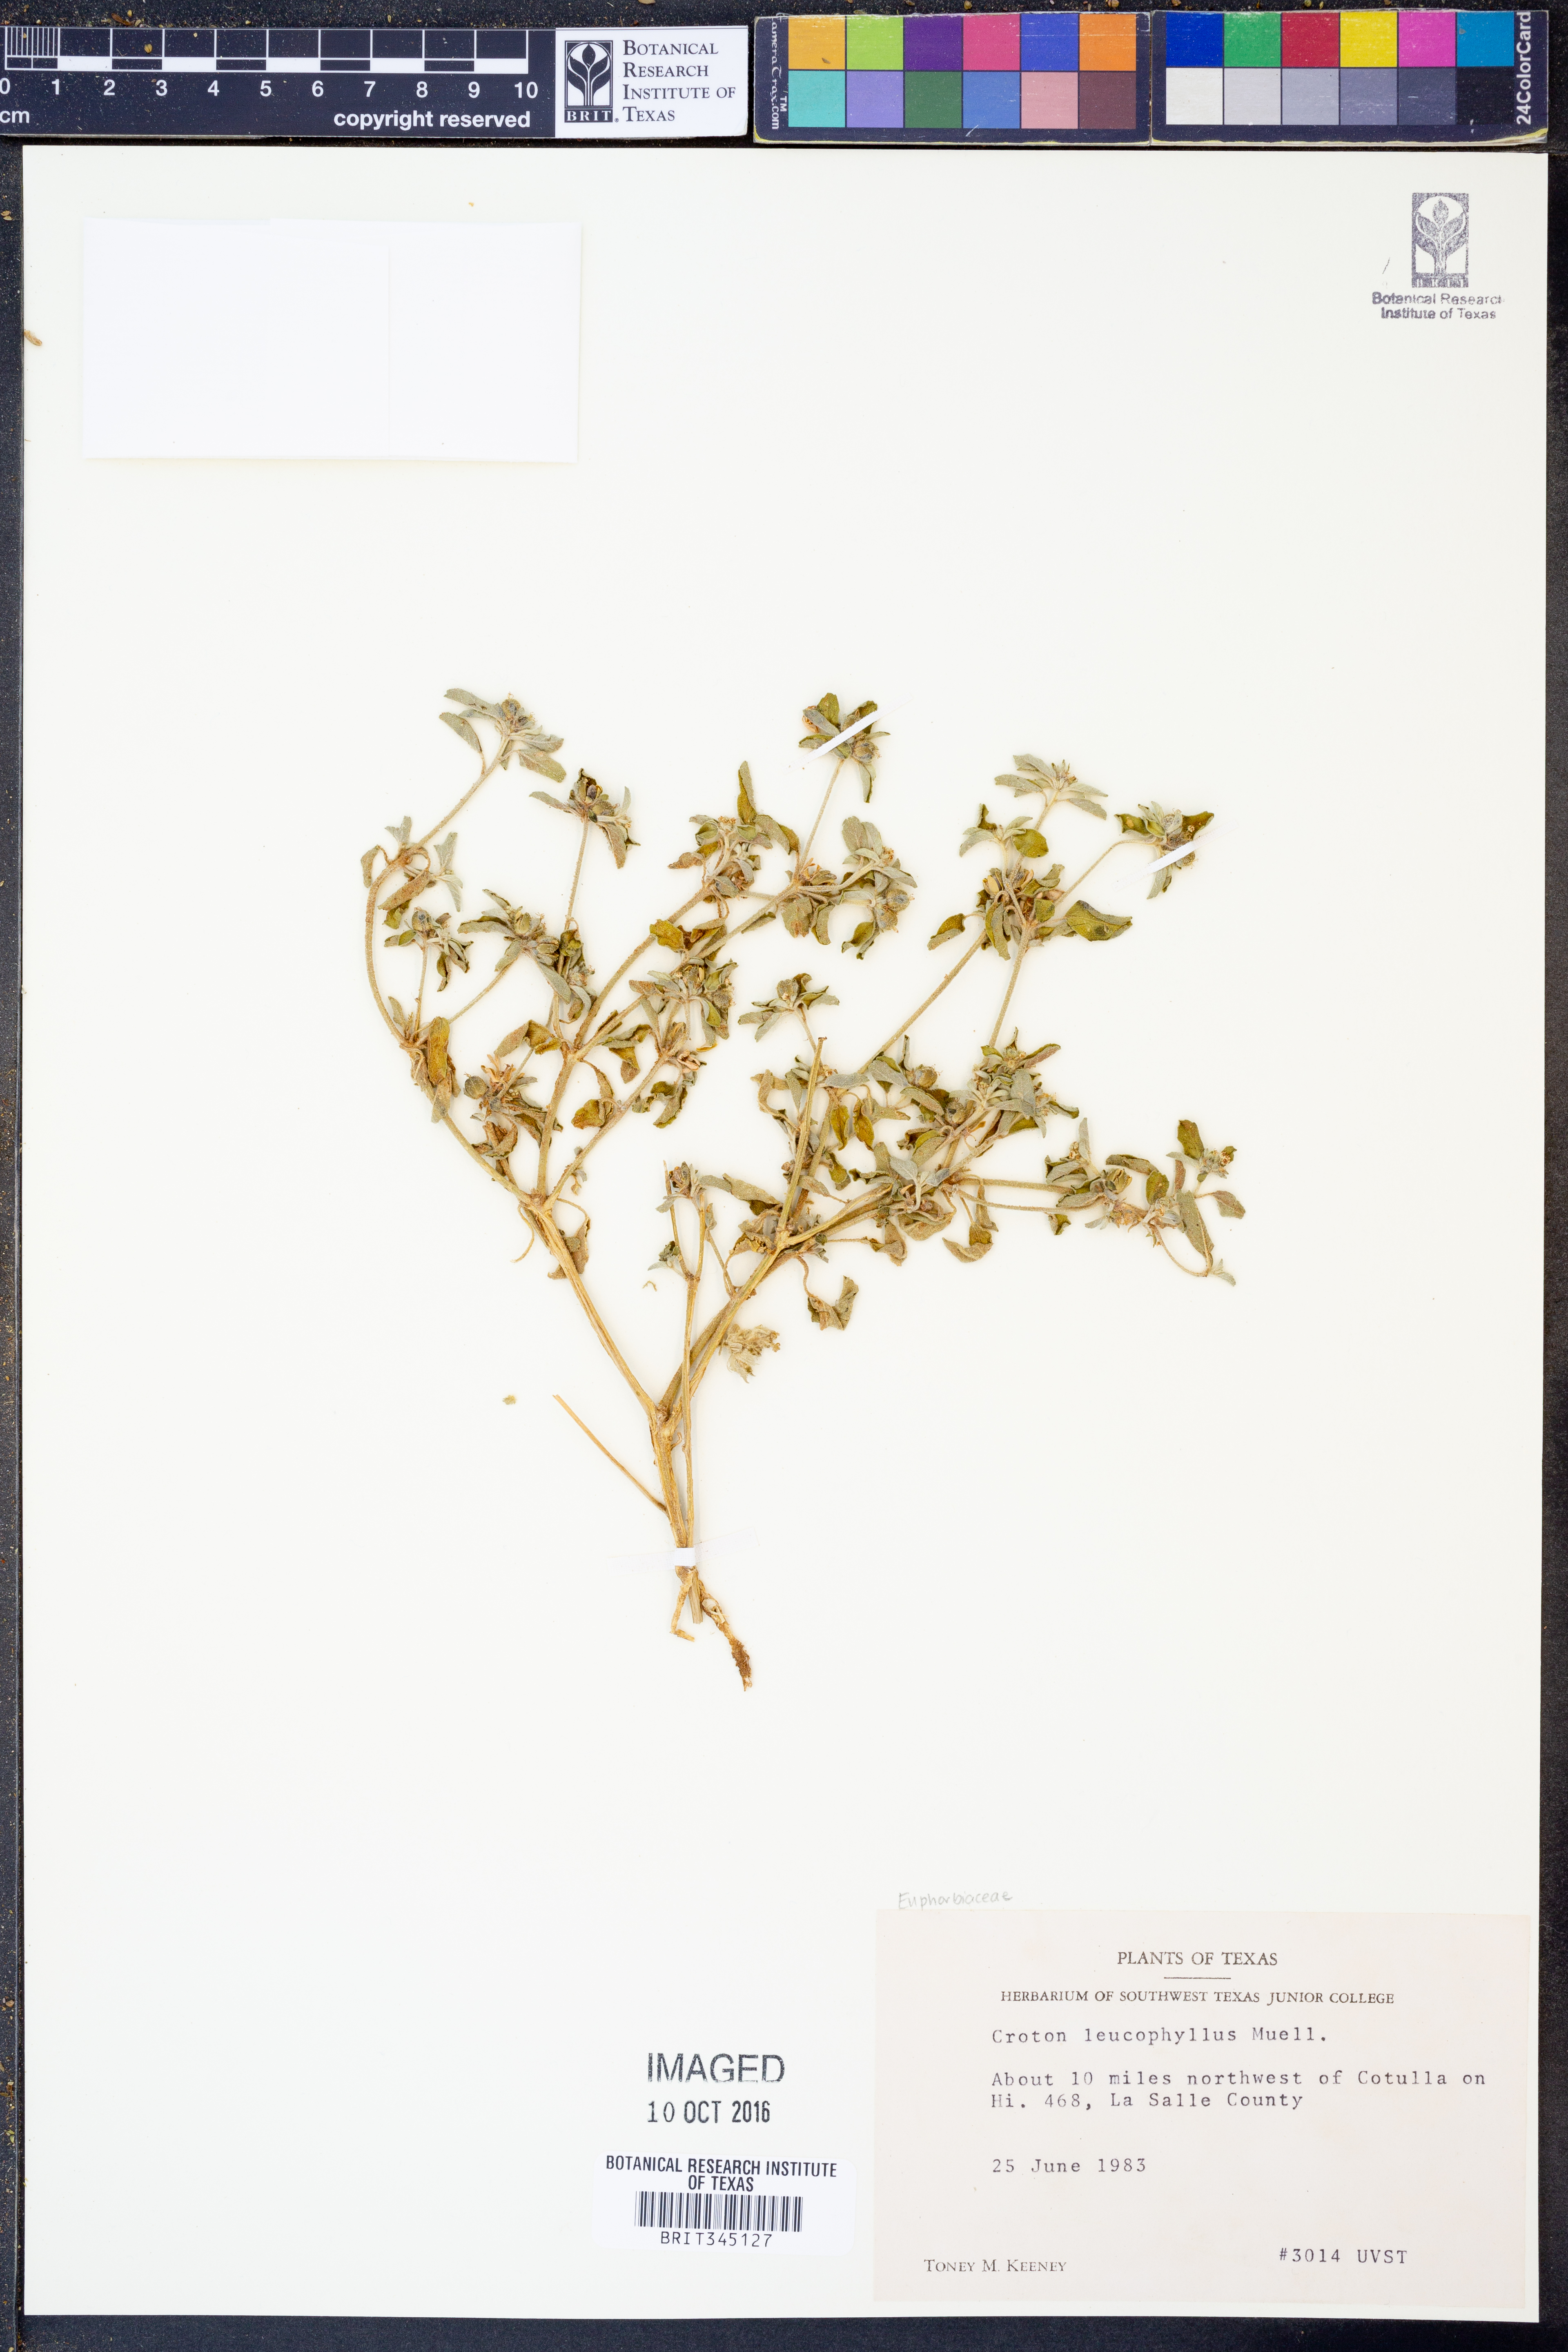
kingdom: Plantae
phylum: Tracheophyta
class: Magnoliopsida
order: Malpighiales
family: Euphorbiaceae
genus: Croton
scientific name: Croton leucophyllus
